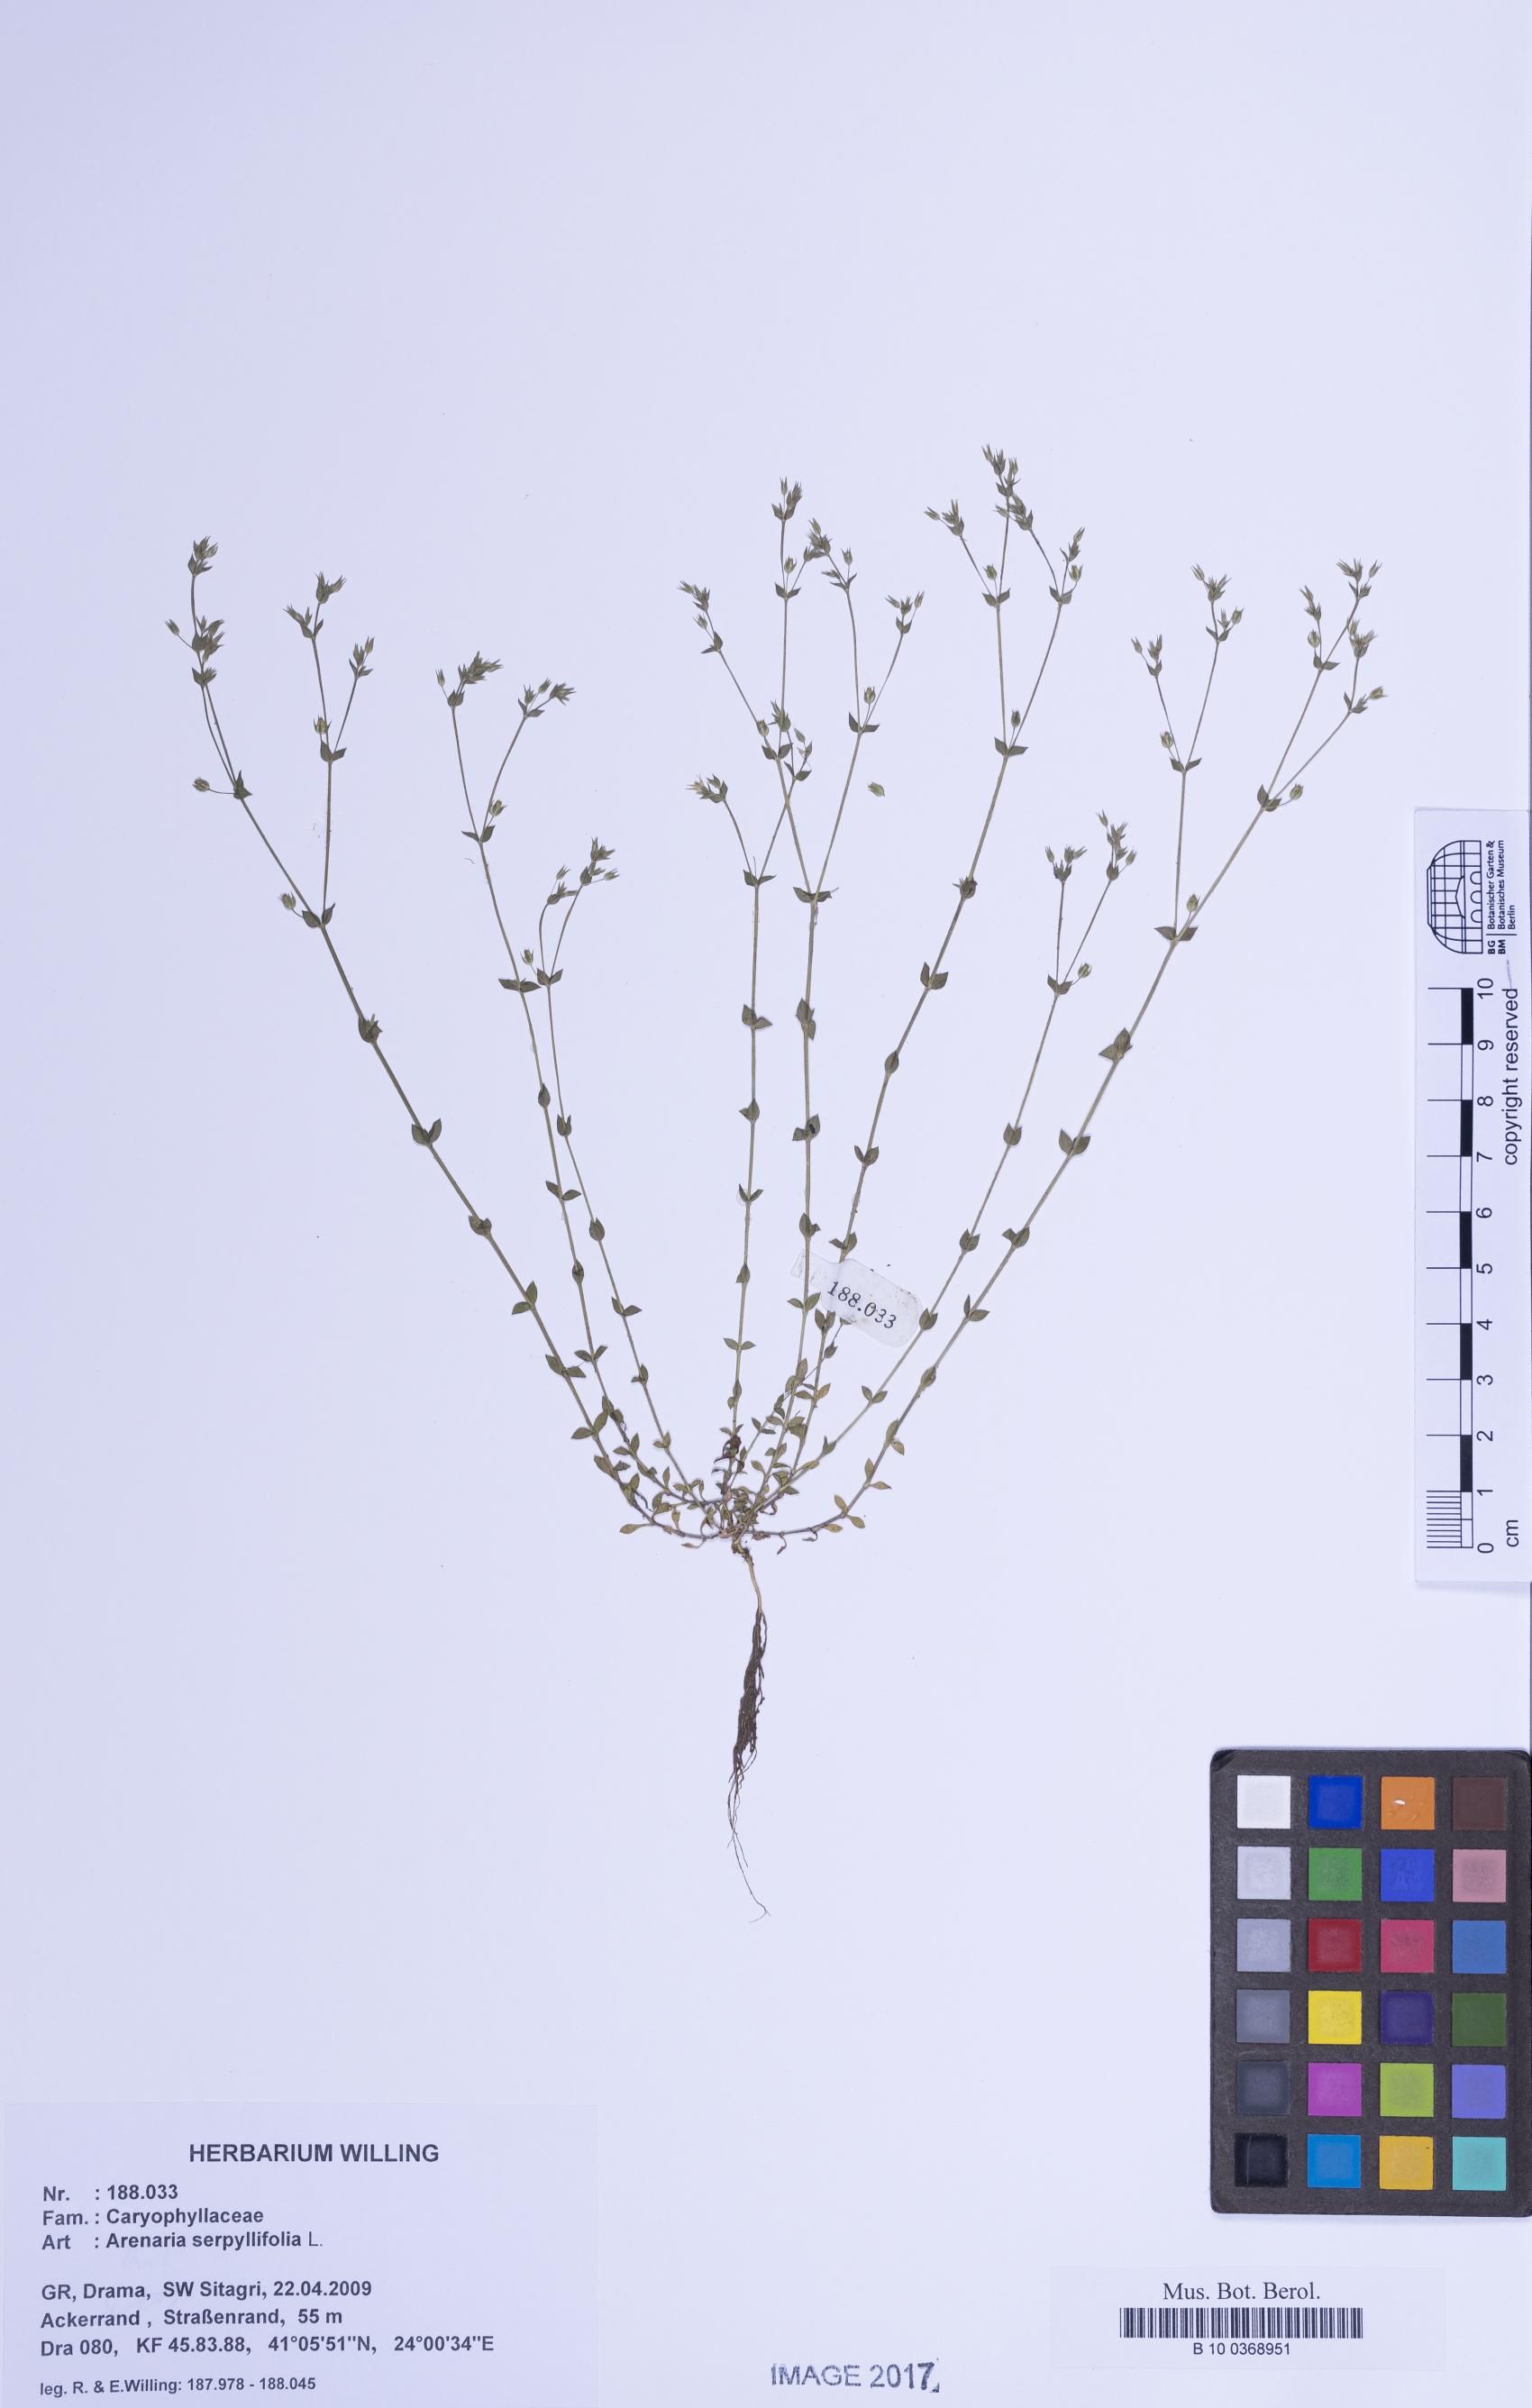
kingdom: Plantae
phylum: Tracheophyta
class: Magnoliopsida
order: Caryophyllales
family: Caryophyllaceae
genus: Arenaria
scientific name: Arenaria serpyllifolia
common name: Thyme-leaved sandwort
